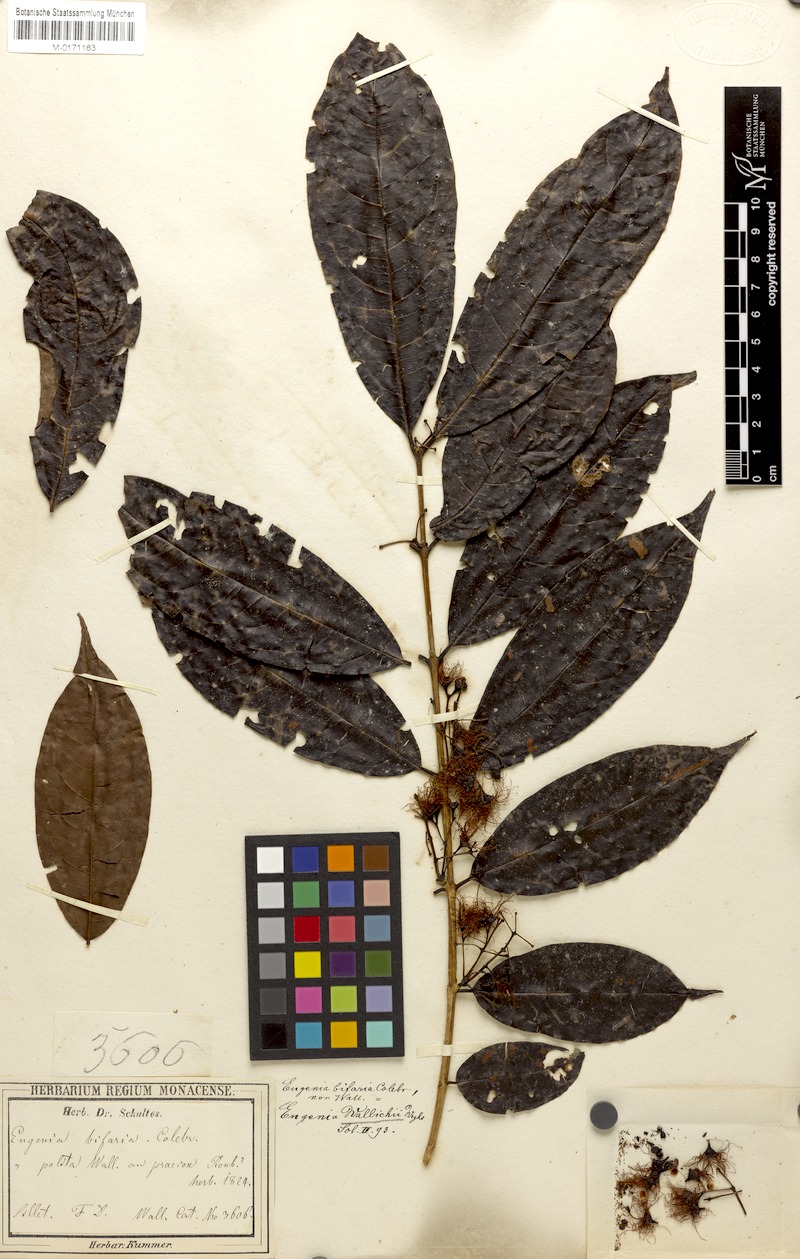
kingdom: Plantae
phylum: Tracheophyta
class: Magnoliopsida
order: Myrtales
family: Myrtaceae
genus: Syzygium
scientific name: Syzygium praecox
